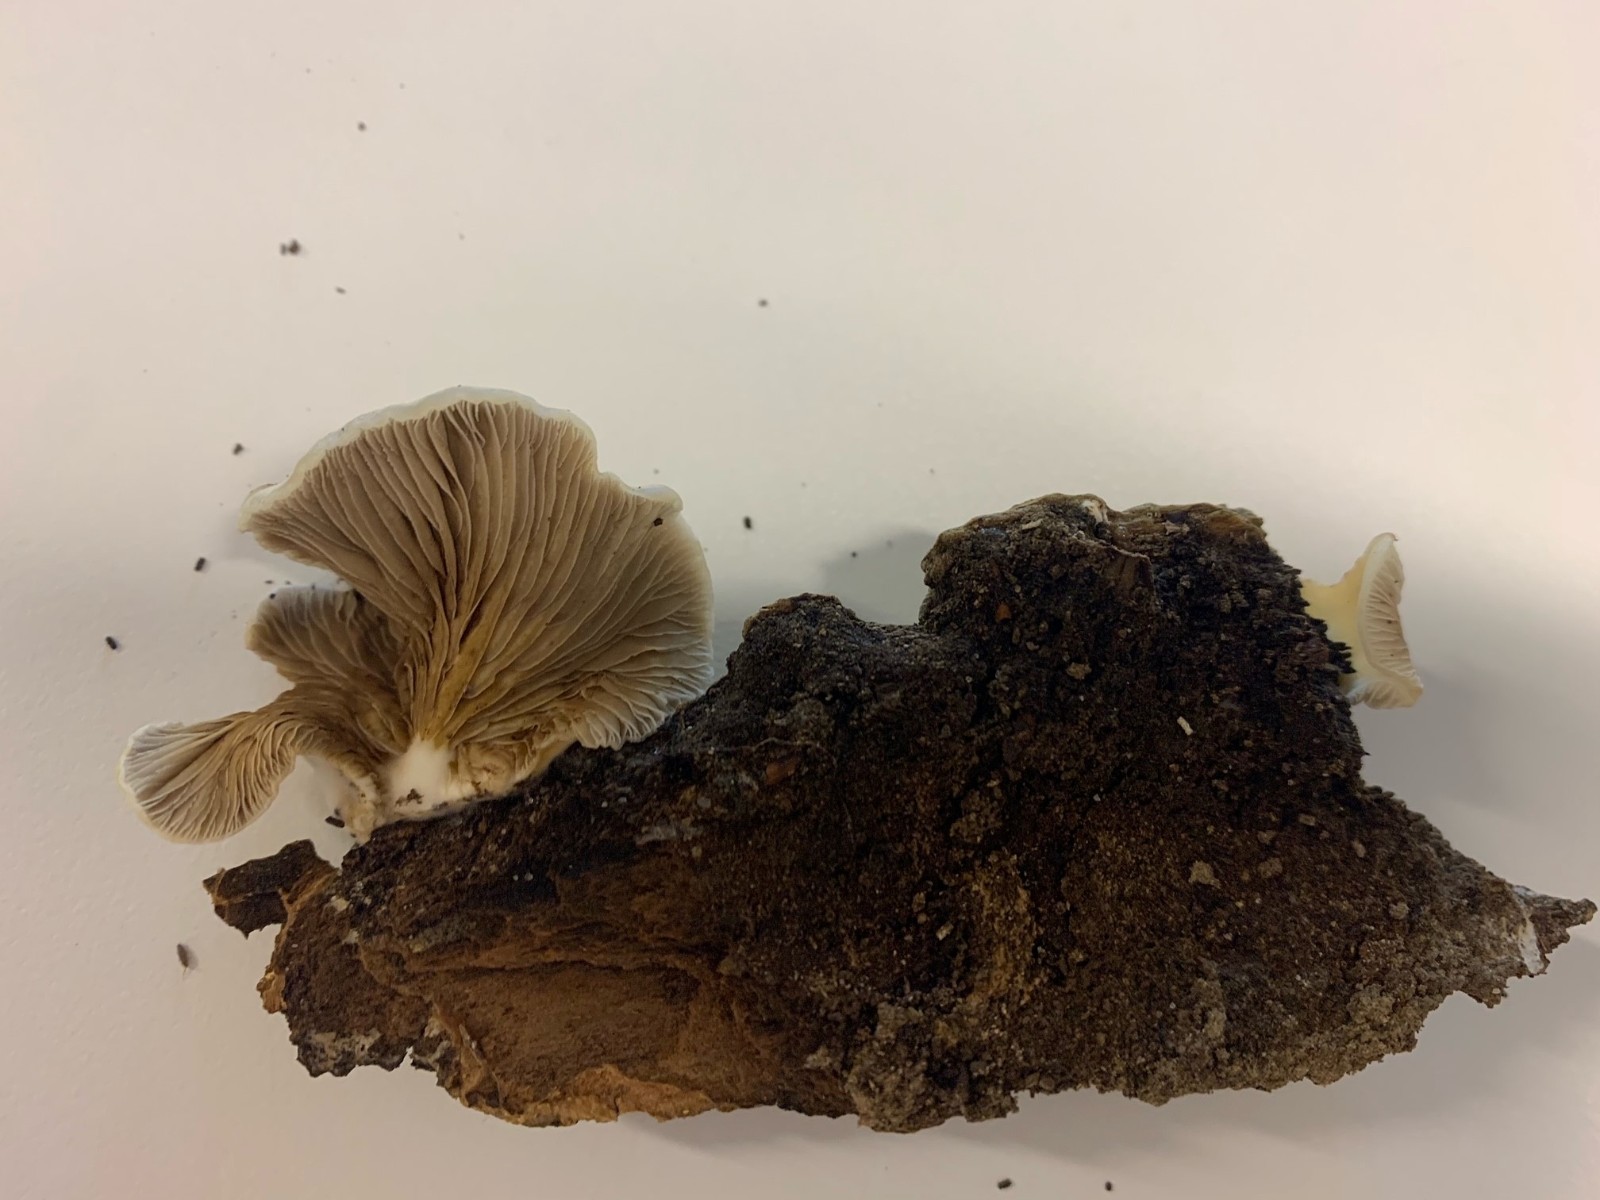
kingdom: Fungi
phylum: Basidiomycota
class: Agaricomycetes
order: Agaricales
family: Crepidotaceae
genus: Crepidotus
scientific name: Crepidotus mollis
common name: blød muslingesvamp
